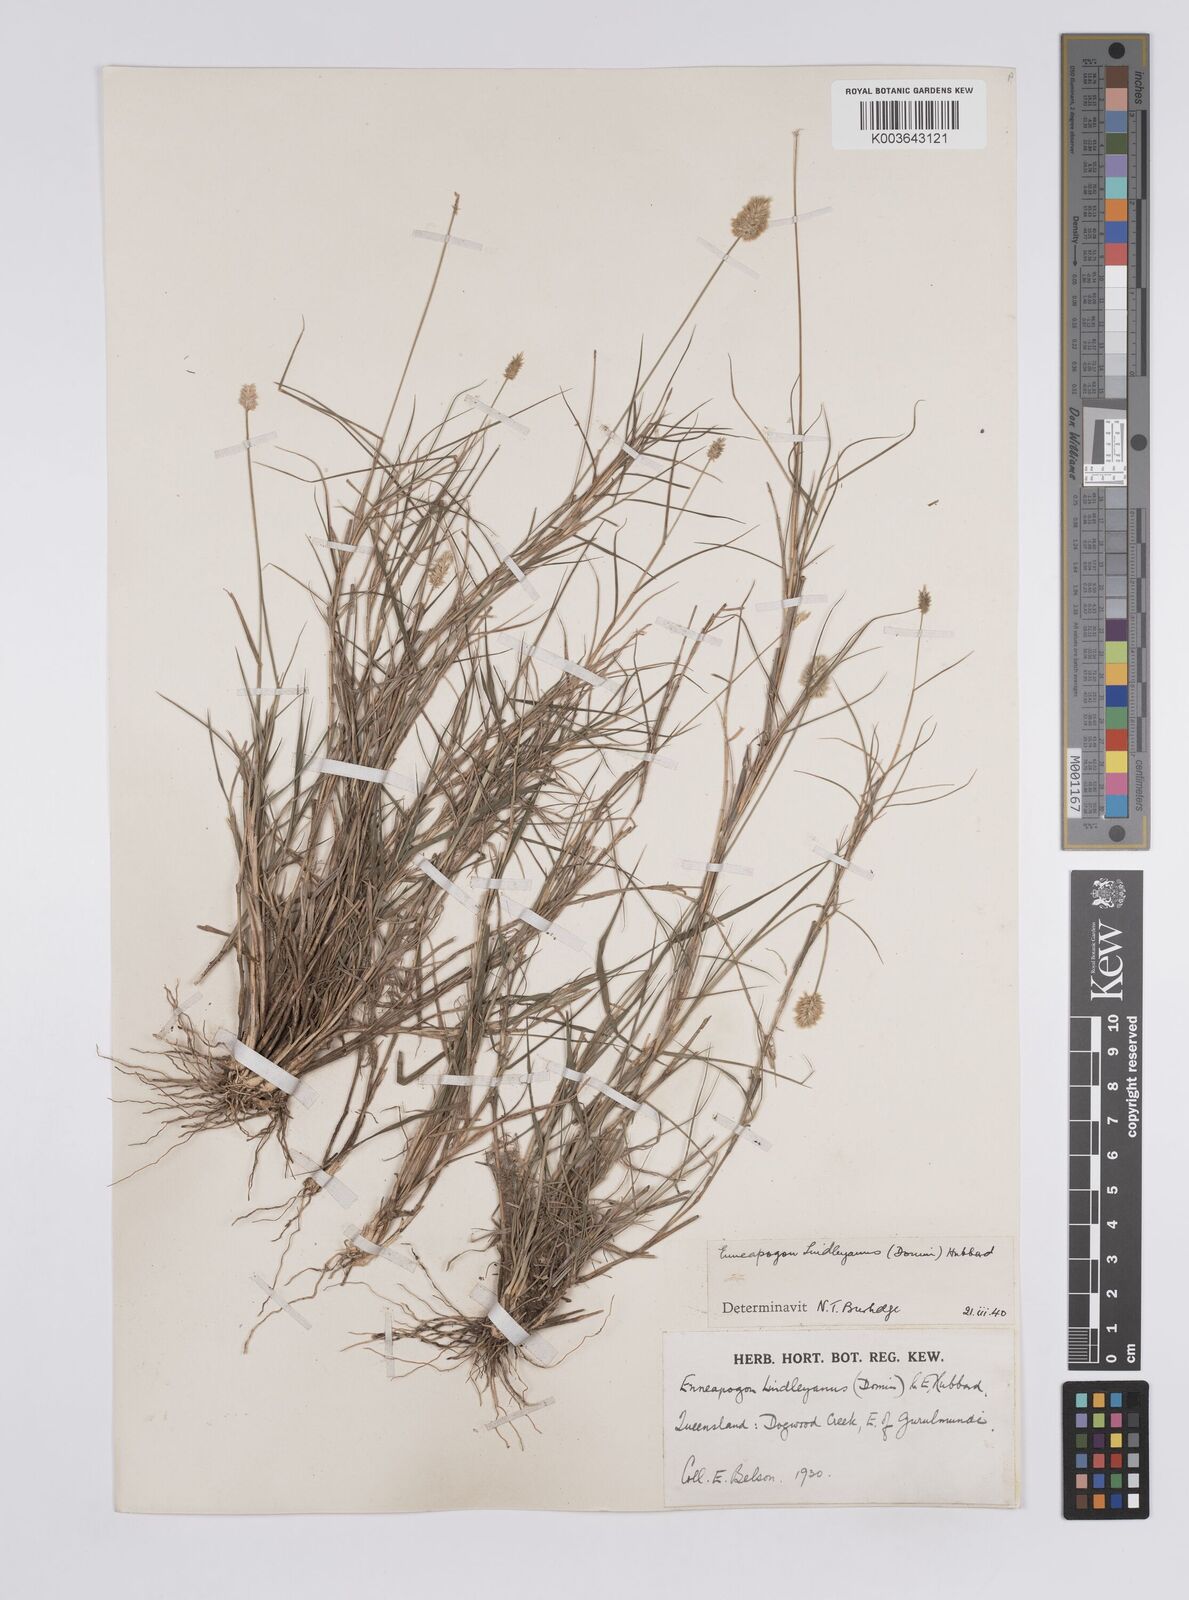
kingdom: Plantae
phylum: Tracheophyta
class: Liliopsida
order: Poales
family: Poaceae
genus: Enneapogon
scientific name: Enneapogon lindleyanus
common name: Conetop nineawn
